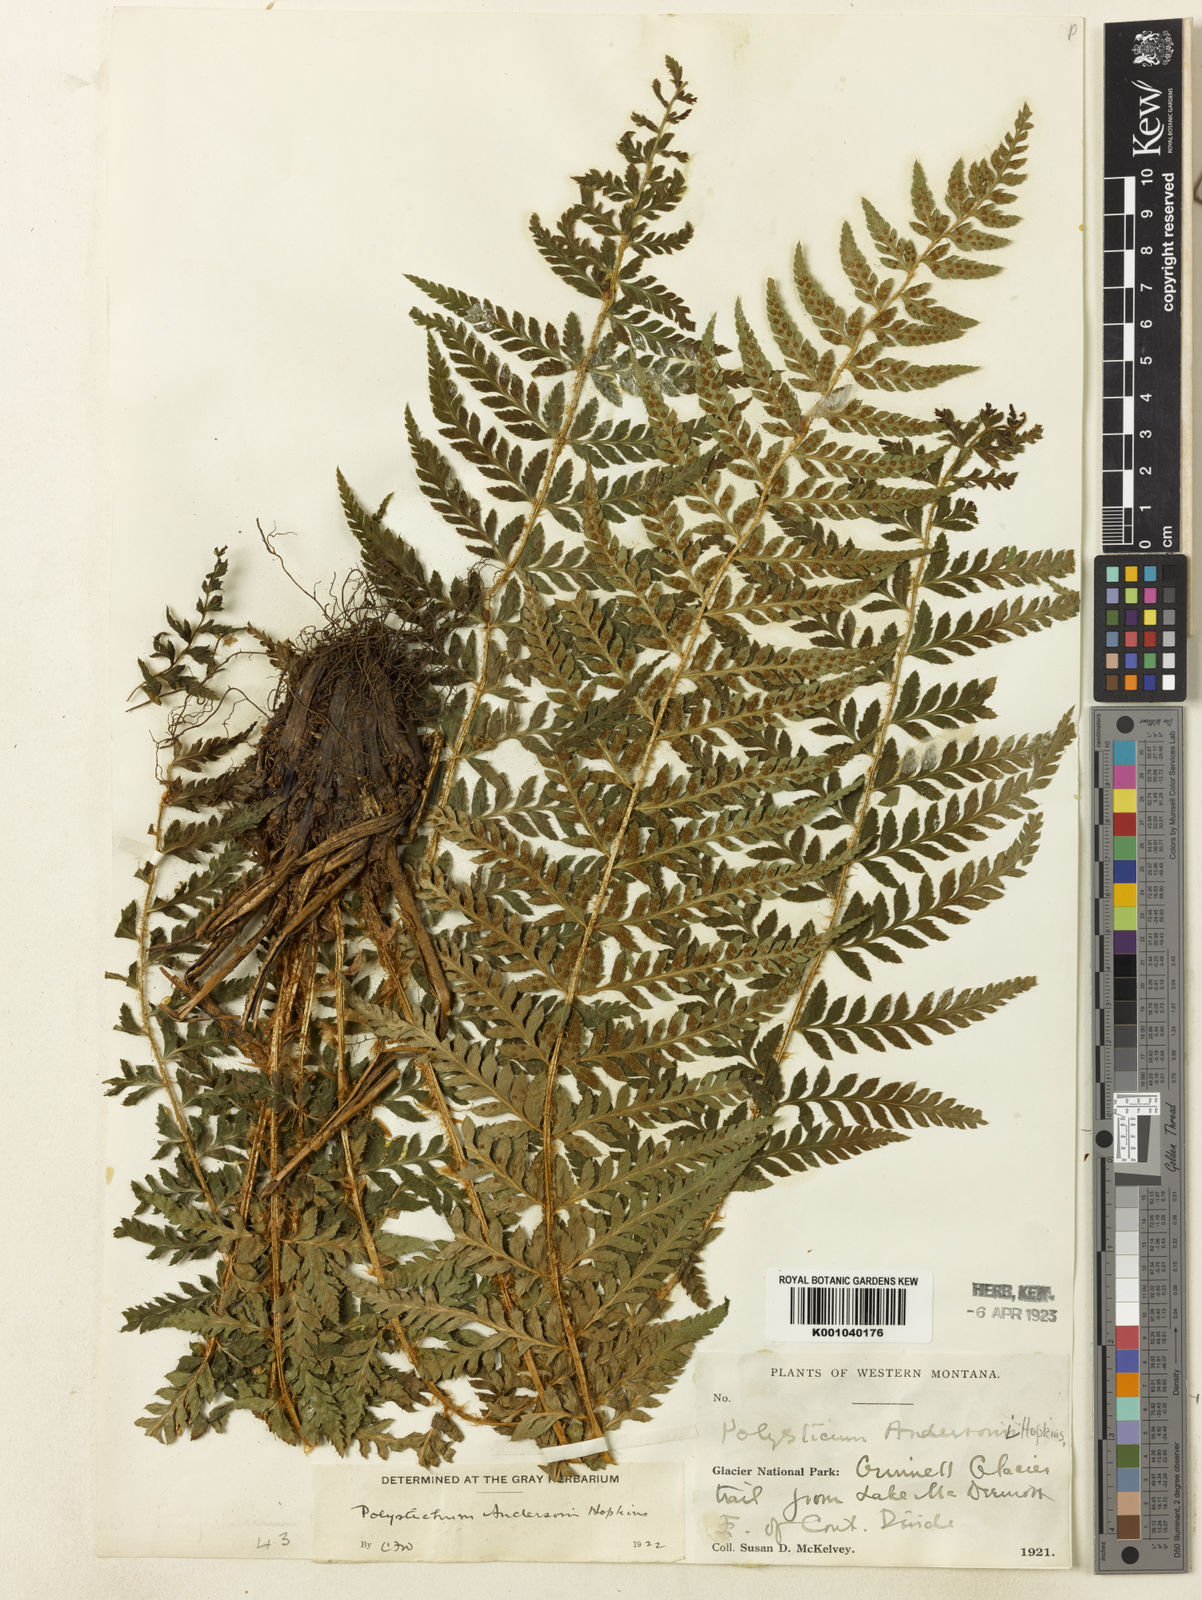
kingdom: Plantae
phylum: Tracheophyta
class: Polypodiopsida
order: Polypodiales
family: Dryopteridaceae
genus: Polystichum
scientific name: Polystichum andersonii
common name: Anderson's holly fern
